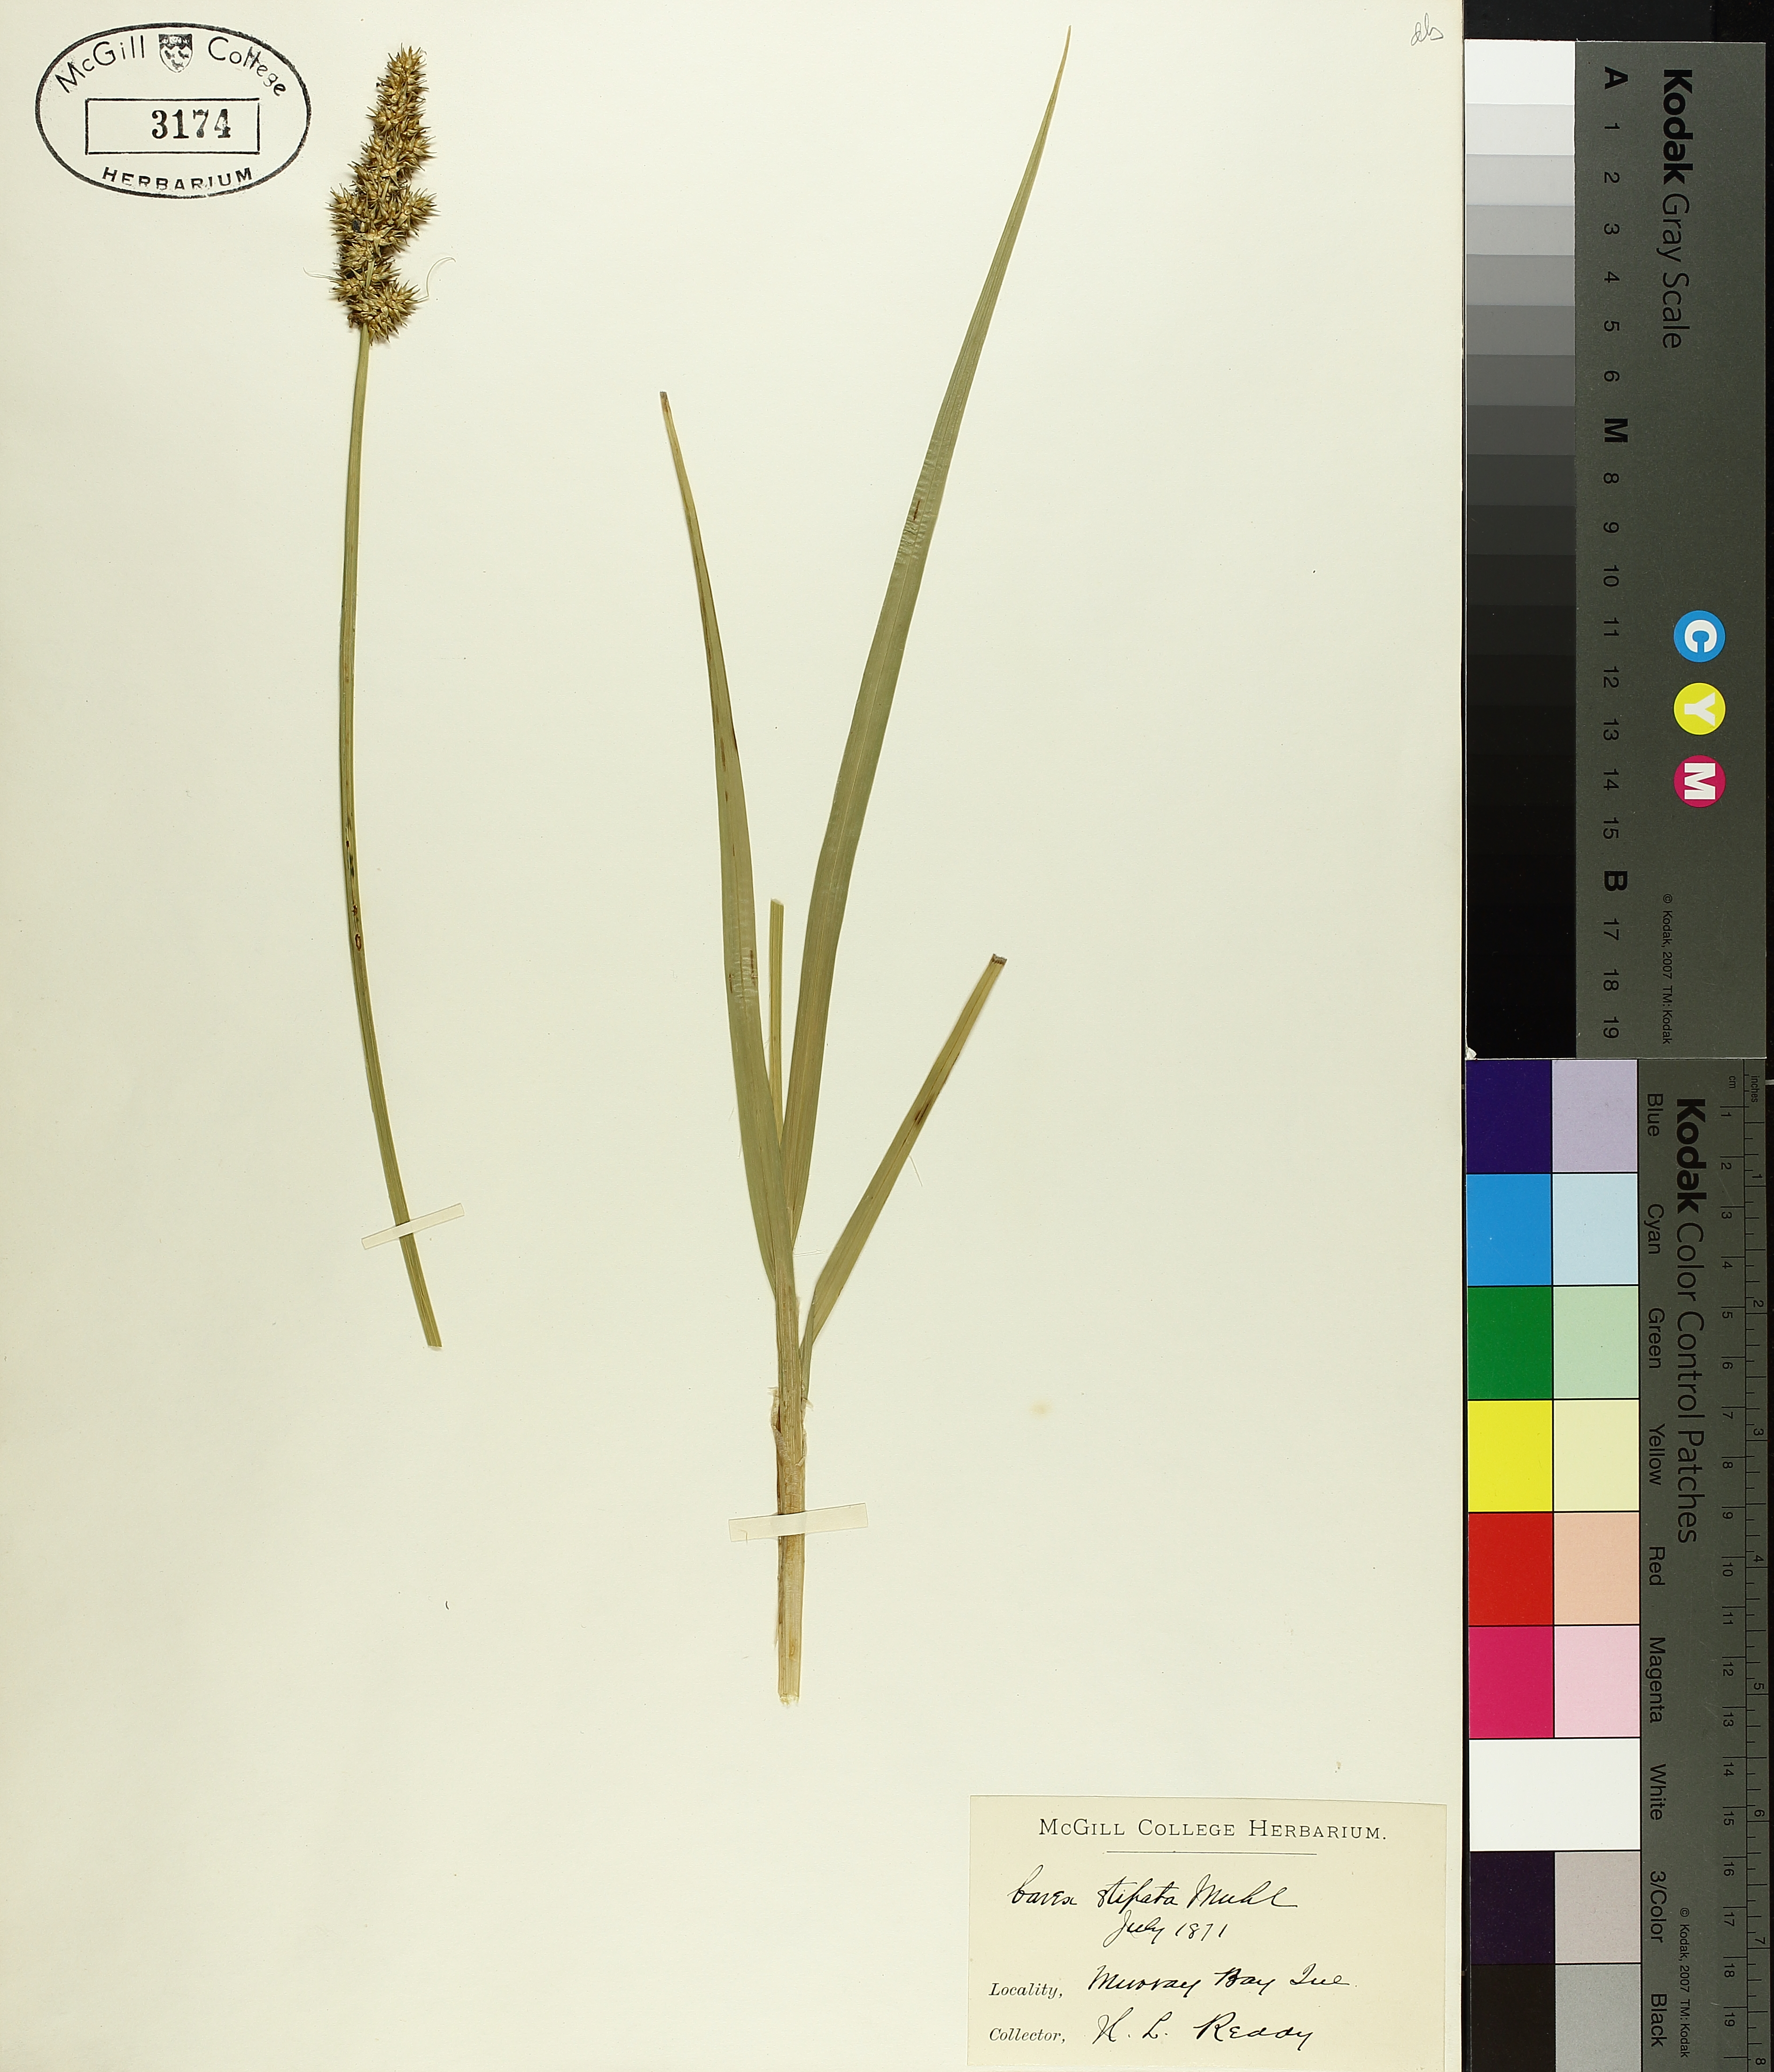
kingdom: Plantae
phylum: Tracheophyta
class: Liliopsida
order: Poales
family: Cyperaceae
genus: Carex
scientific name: Carex stipata
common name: Awl-fruited sedge
